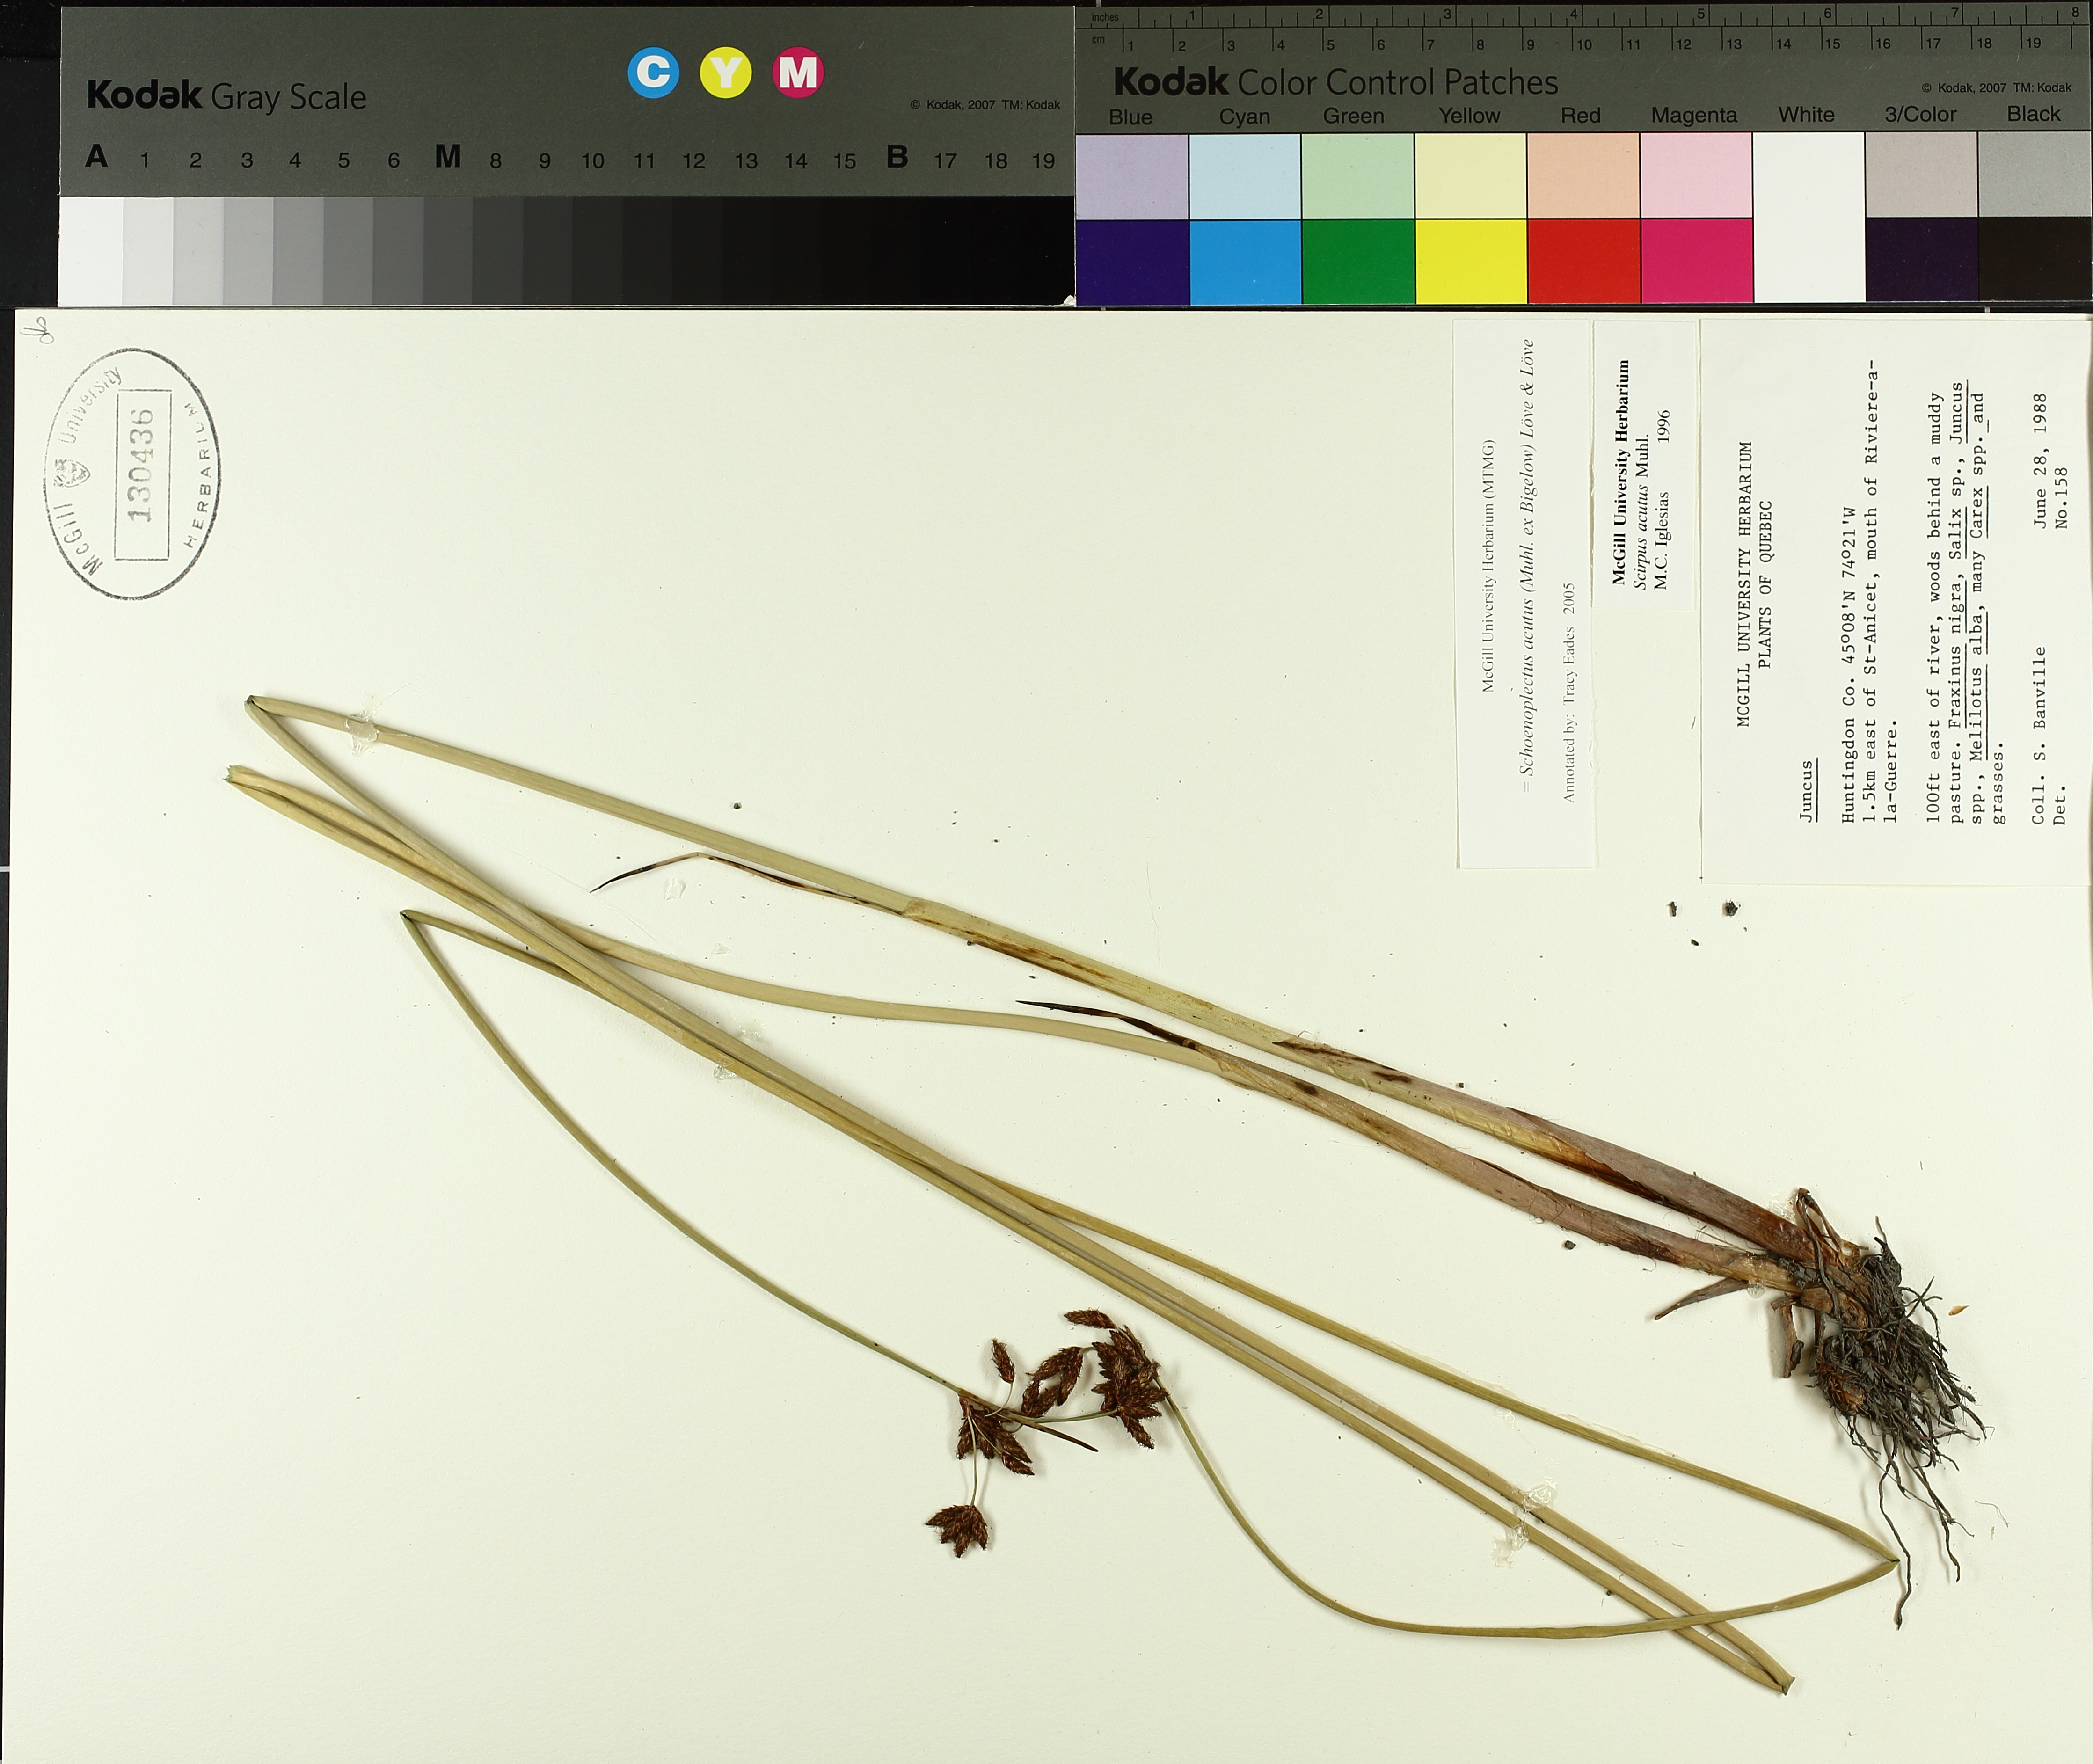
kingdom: Plantae
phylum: Tracheophyta
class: Liliopsida
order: Poales
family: Cyperaceae
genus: Schoenoplectus
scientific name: Schoenoplectus acutus
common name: Hardstem bulrush
